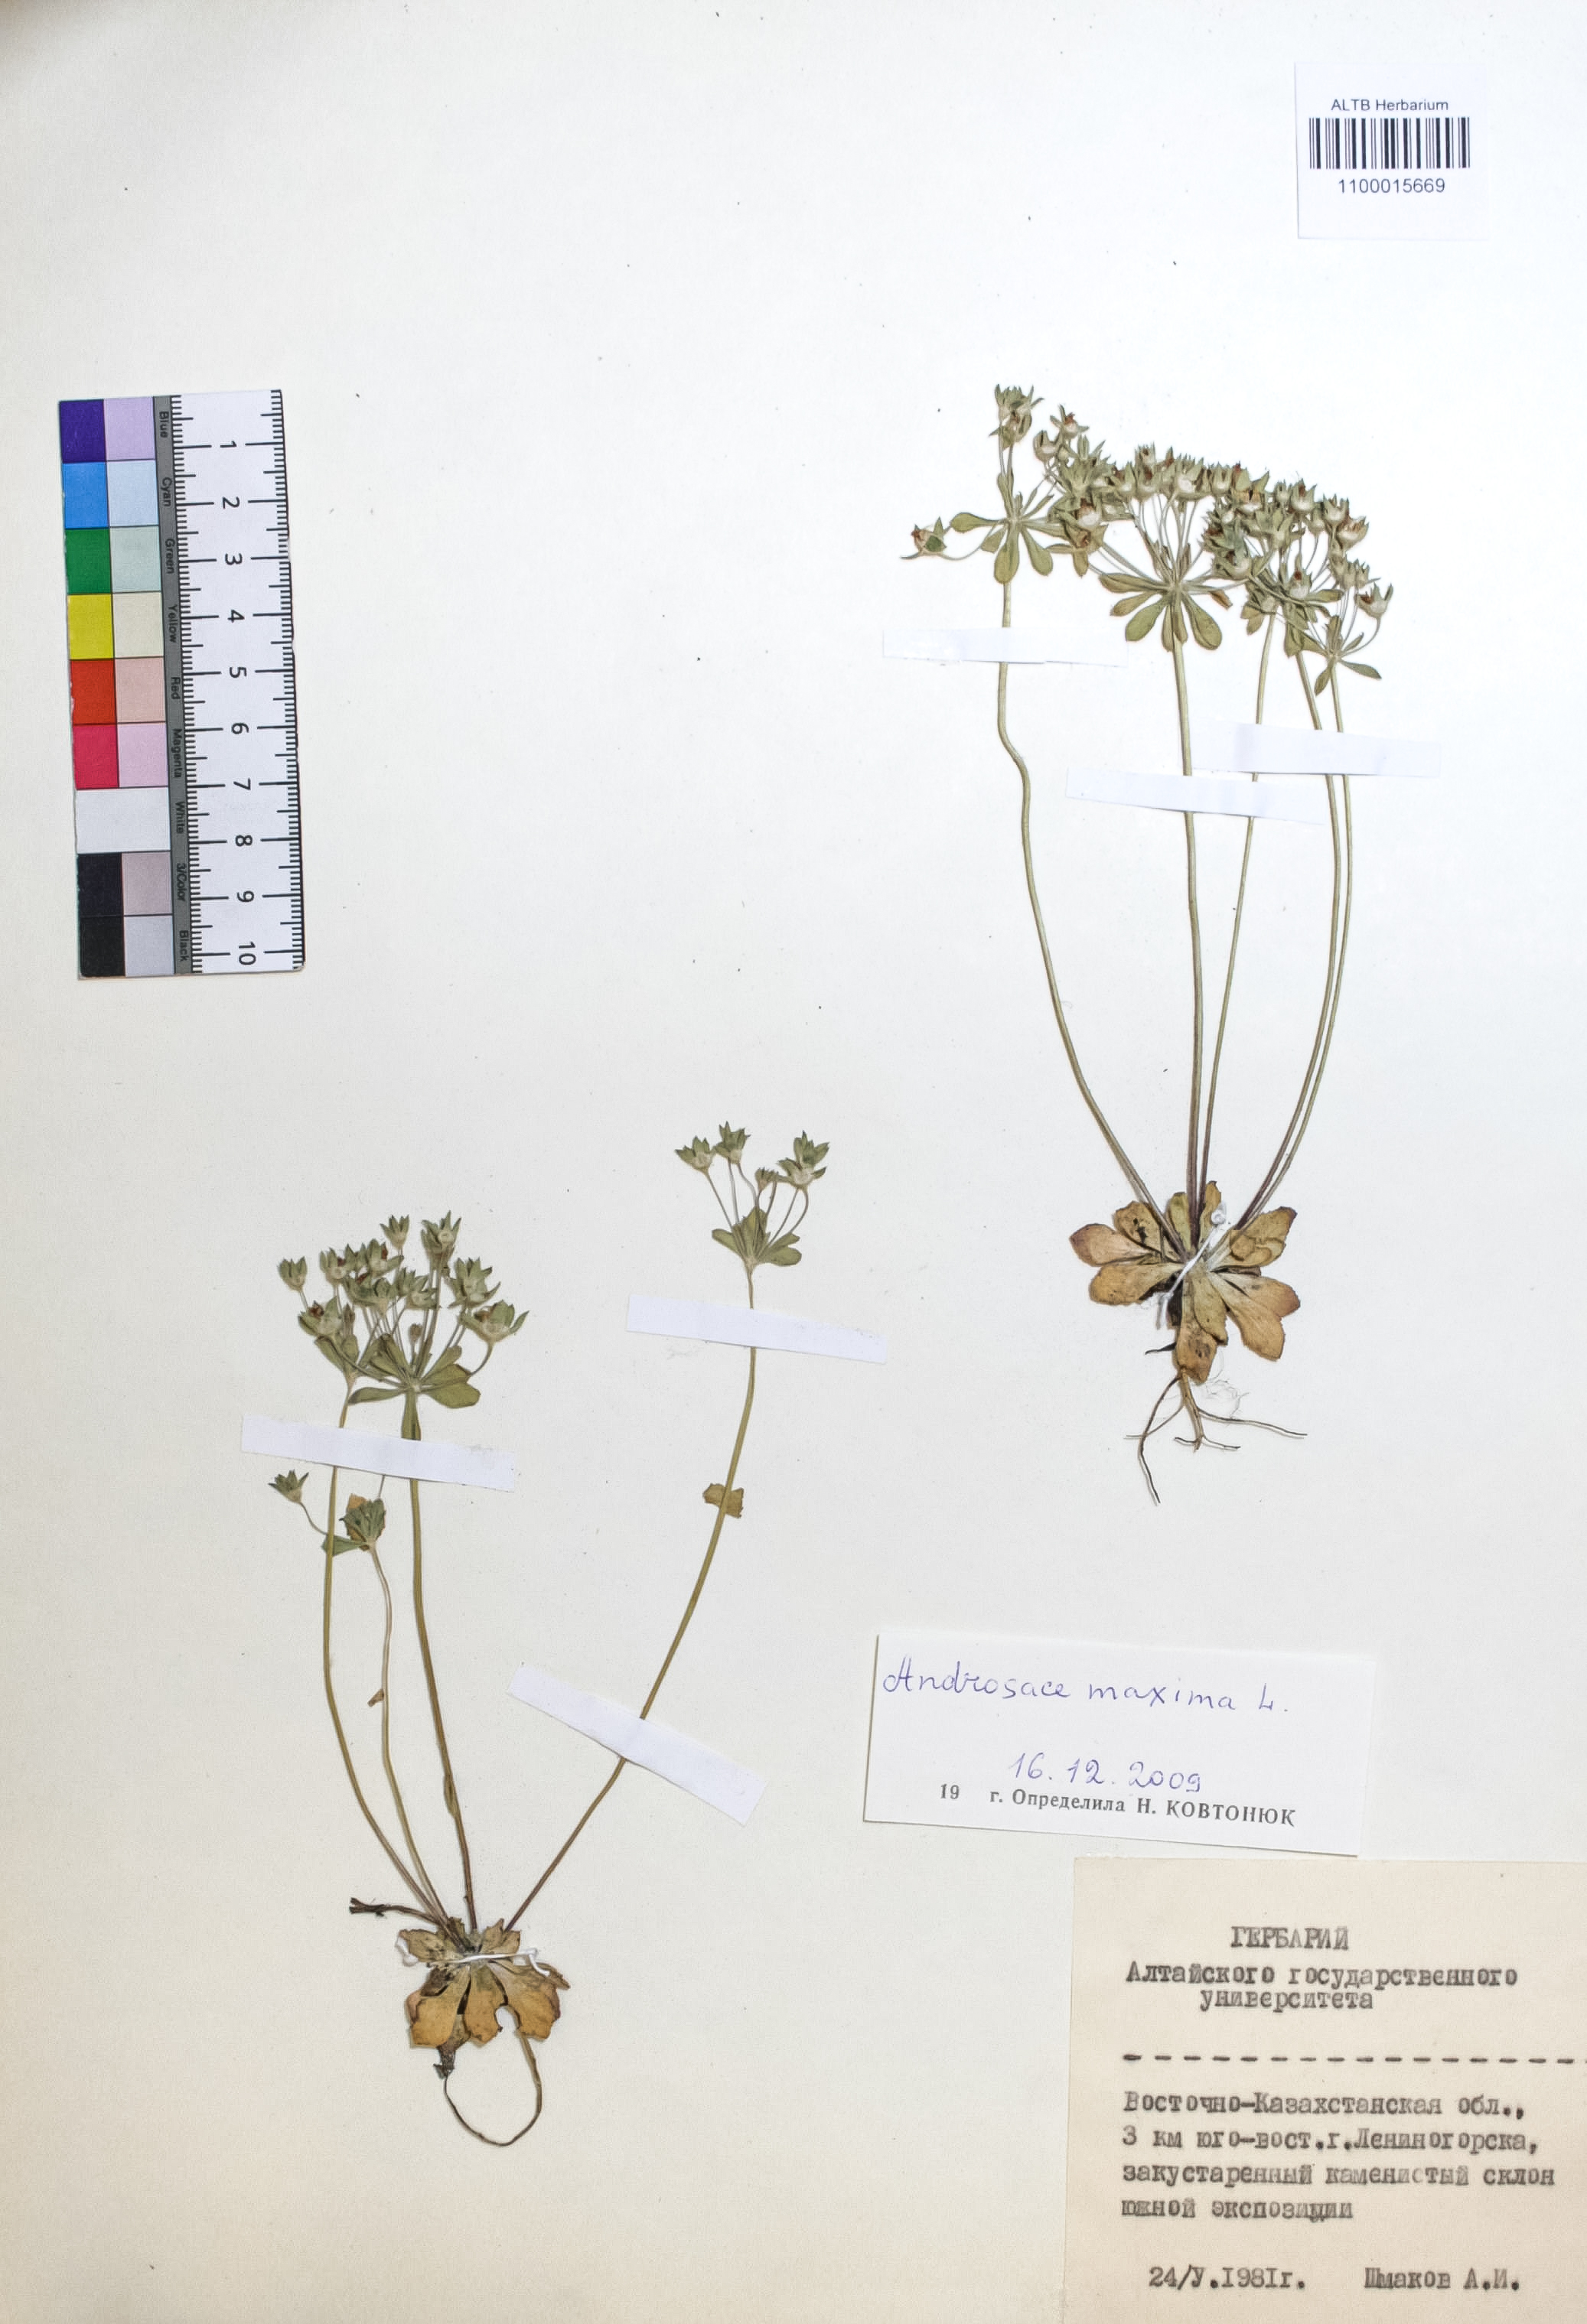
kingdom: Plantae
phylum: Tracheophyta
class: Magnoliopsida
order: Ericales
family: Primulaceae
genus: Androsace
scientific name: Androsace maxima
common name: Annual androsace
